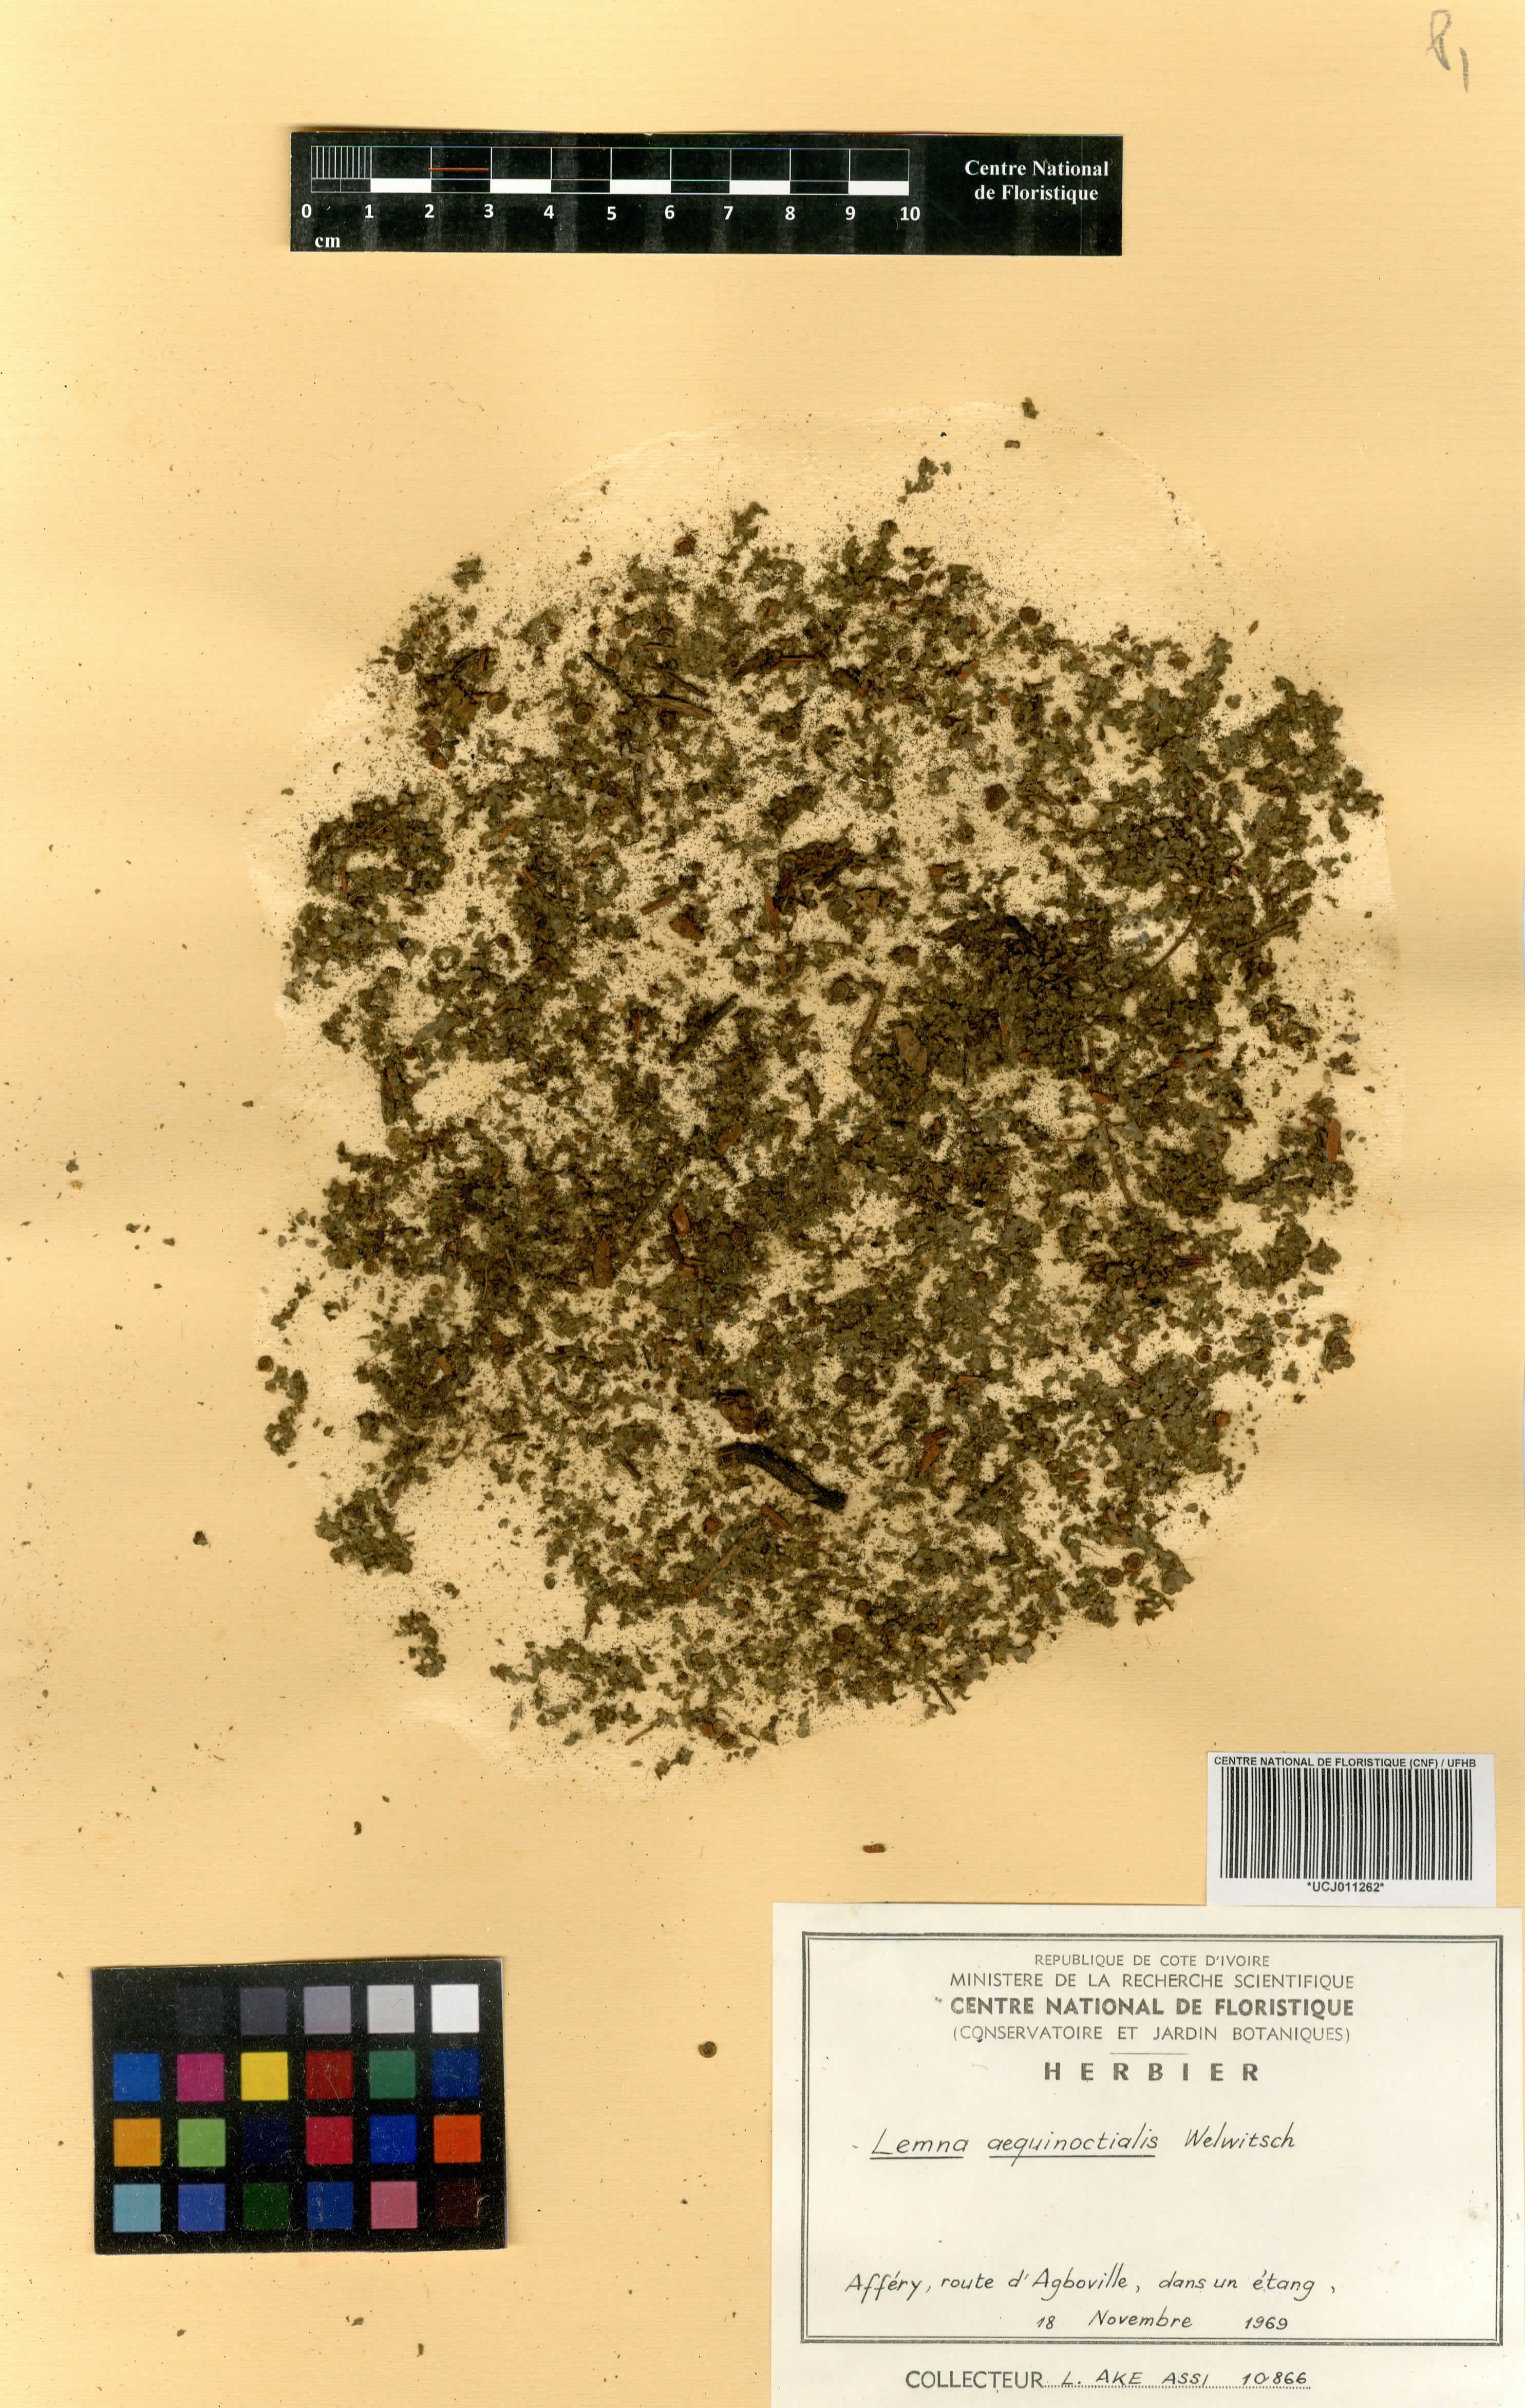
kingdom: Plantae
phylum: Tracheophyta
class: Magnoliopsida
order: Lamiales
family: Lentibulariaceae
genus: Genlisea
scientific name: Genlisea africana
